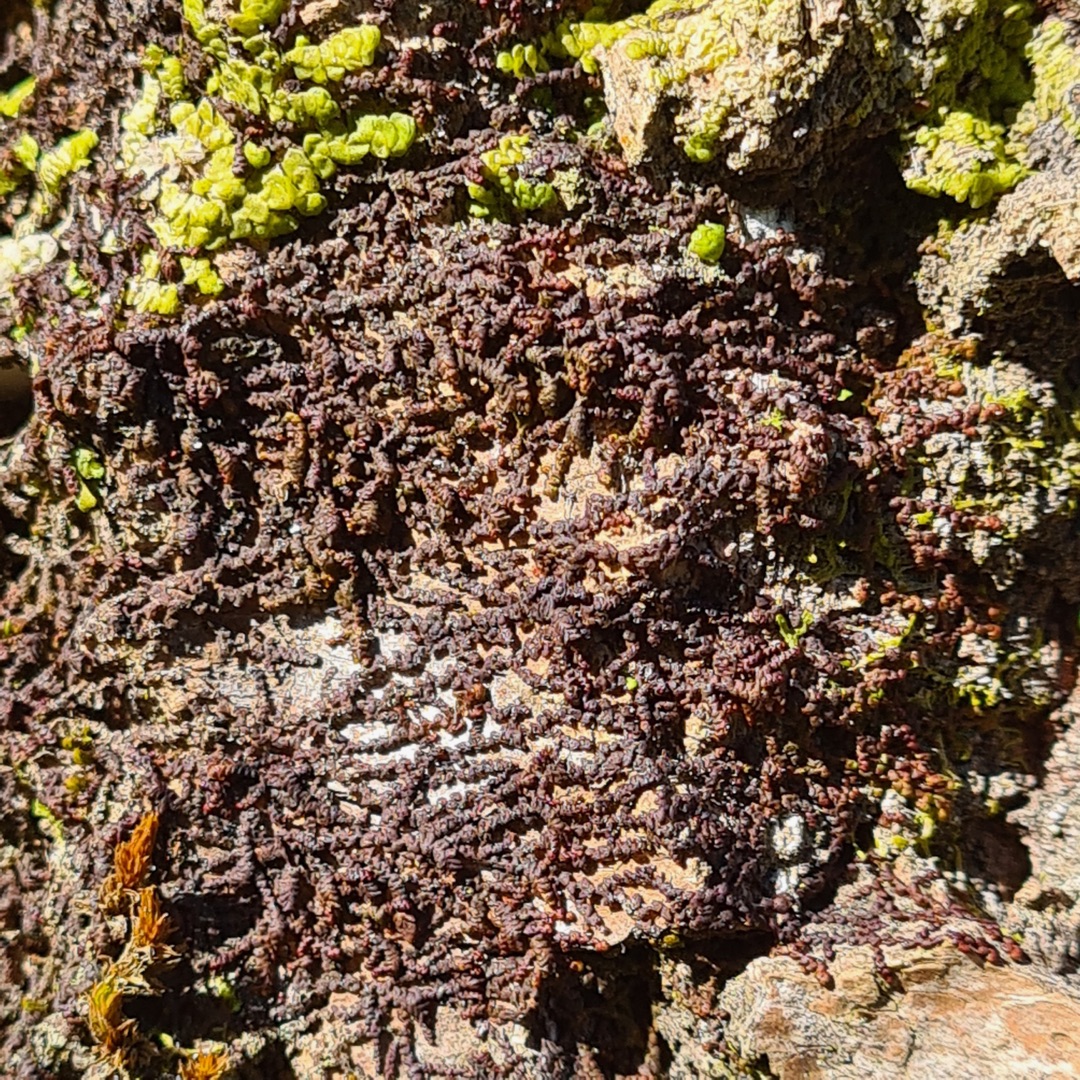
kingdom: Plantae
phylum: Marchantiophyta
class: Jungermanniopsida
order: Porellales
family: Frullaniaceae
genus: Frullania
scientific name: Frullania
